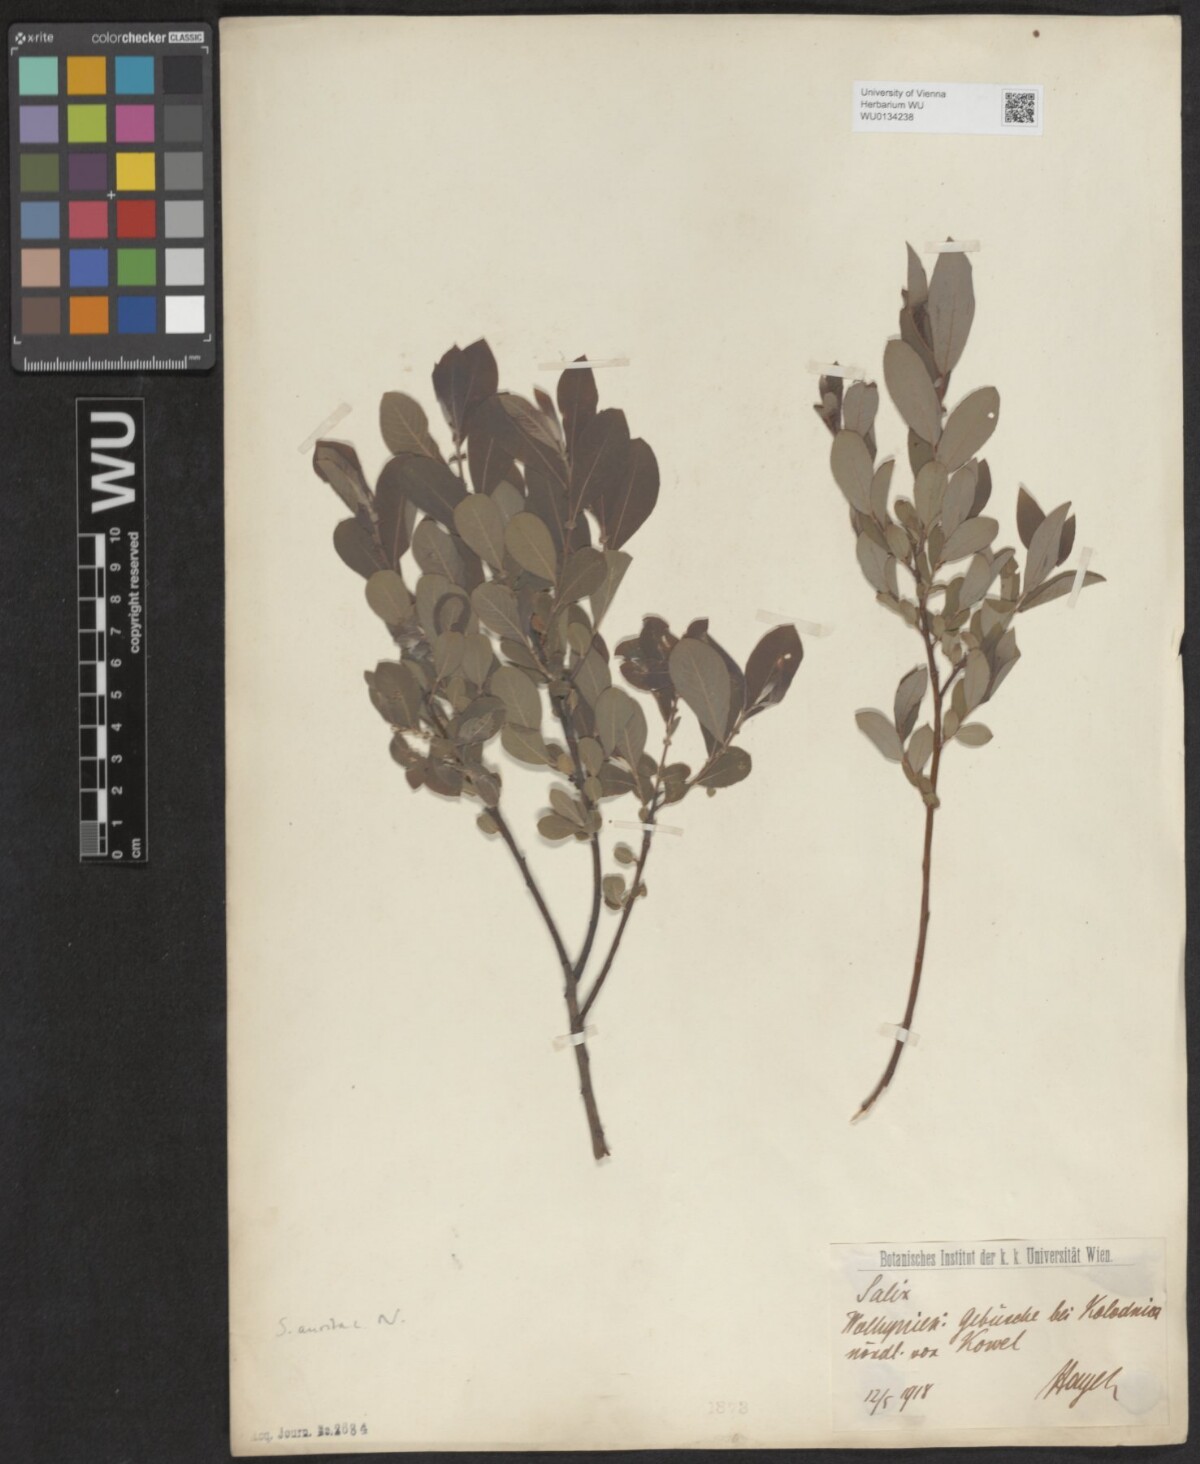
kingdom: Plantae
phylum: Tracheophyta
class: Magnoliopsida
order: Malpighiales
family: Salicaceae
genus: Salix
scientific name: Salix aurita
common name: Eared willow
